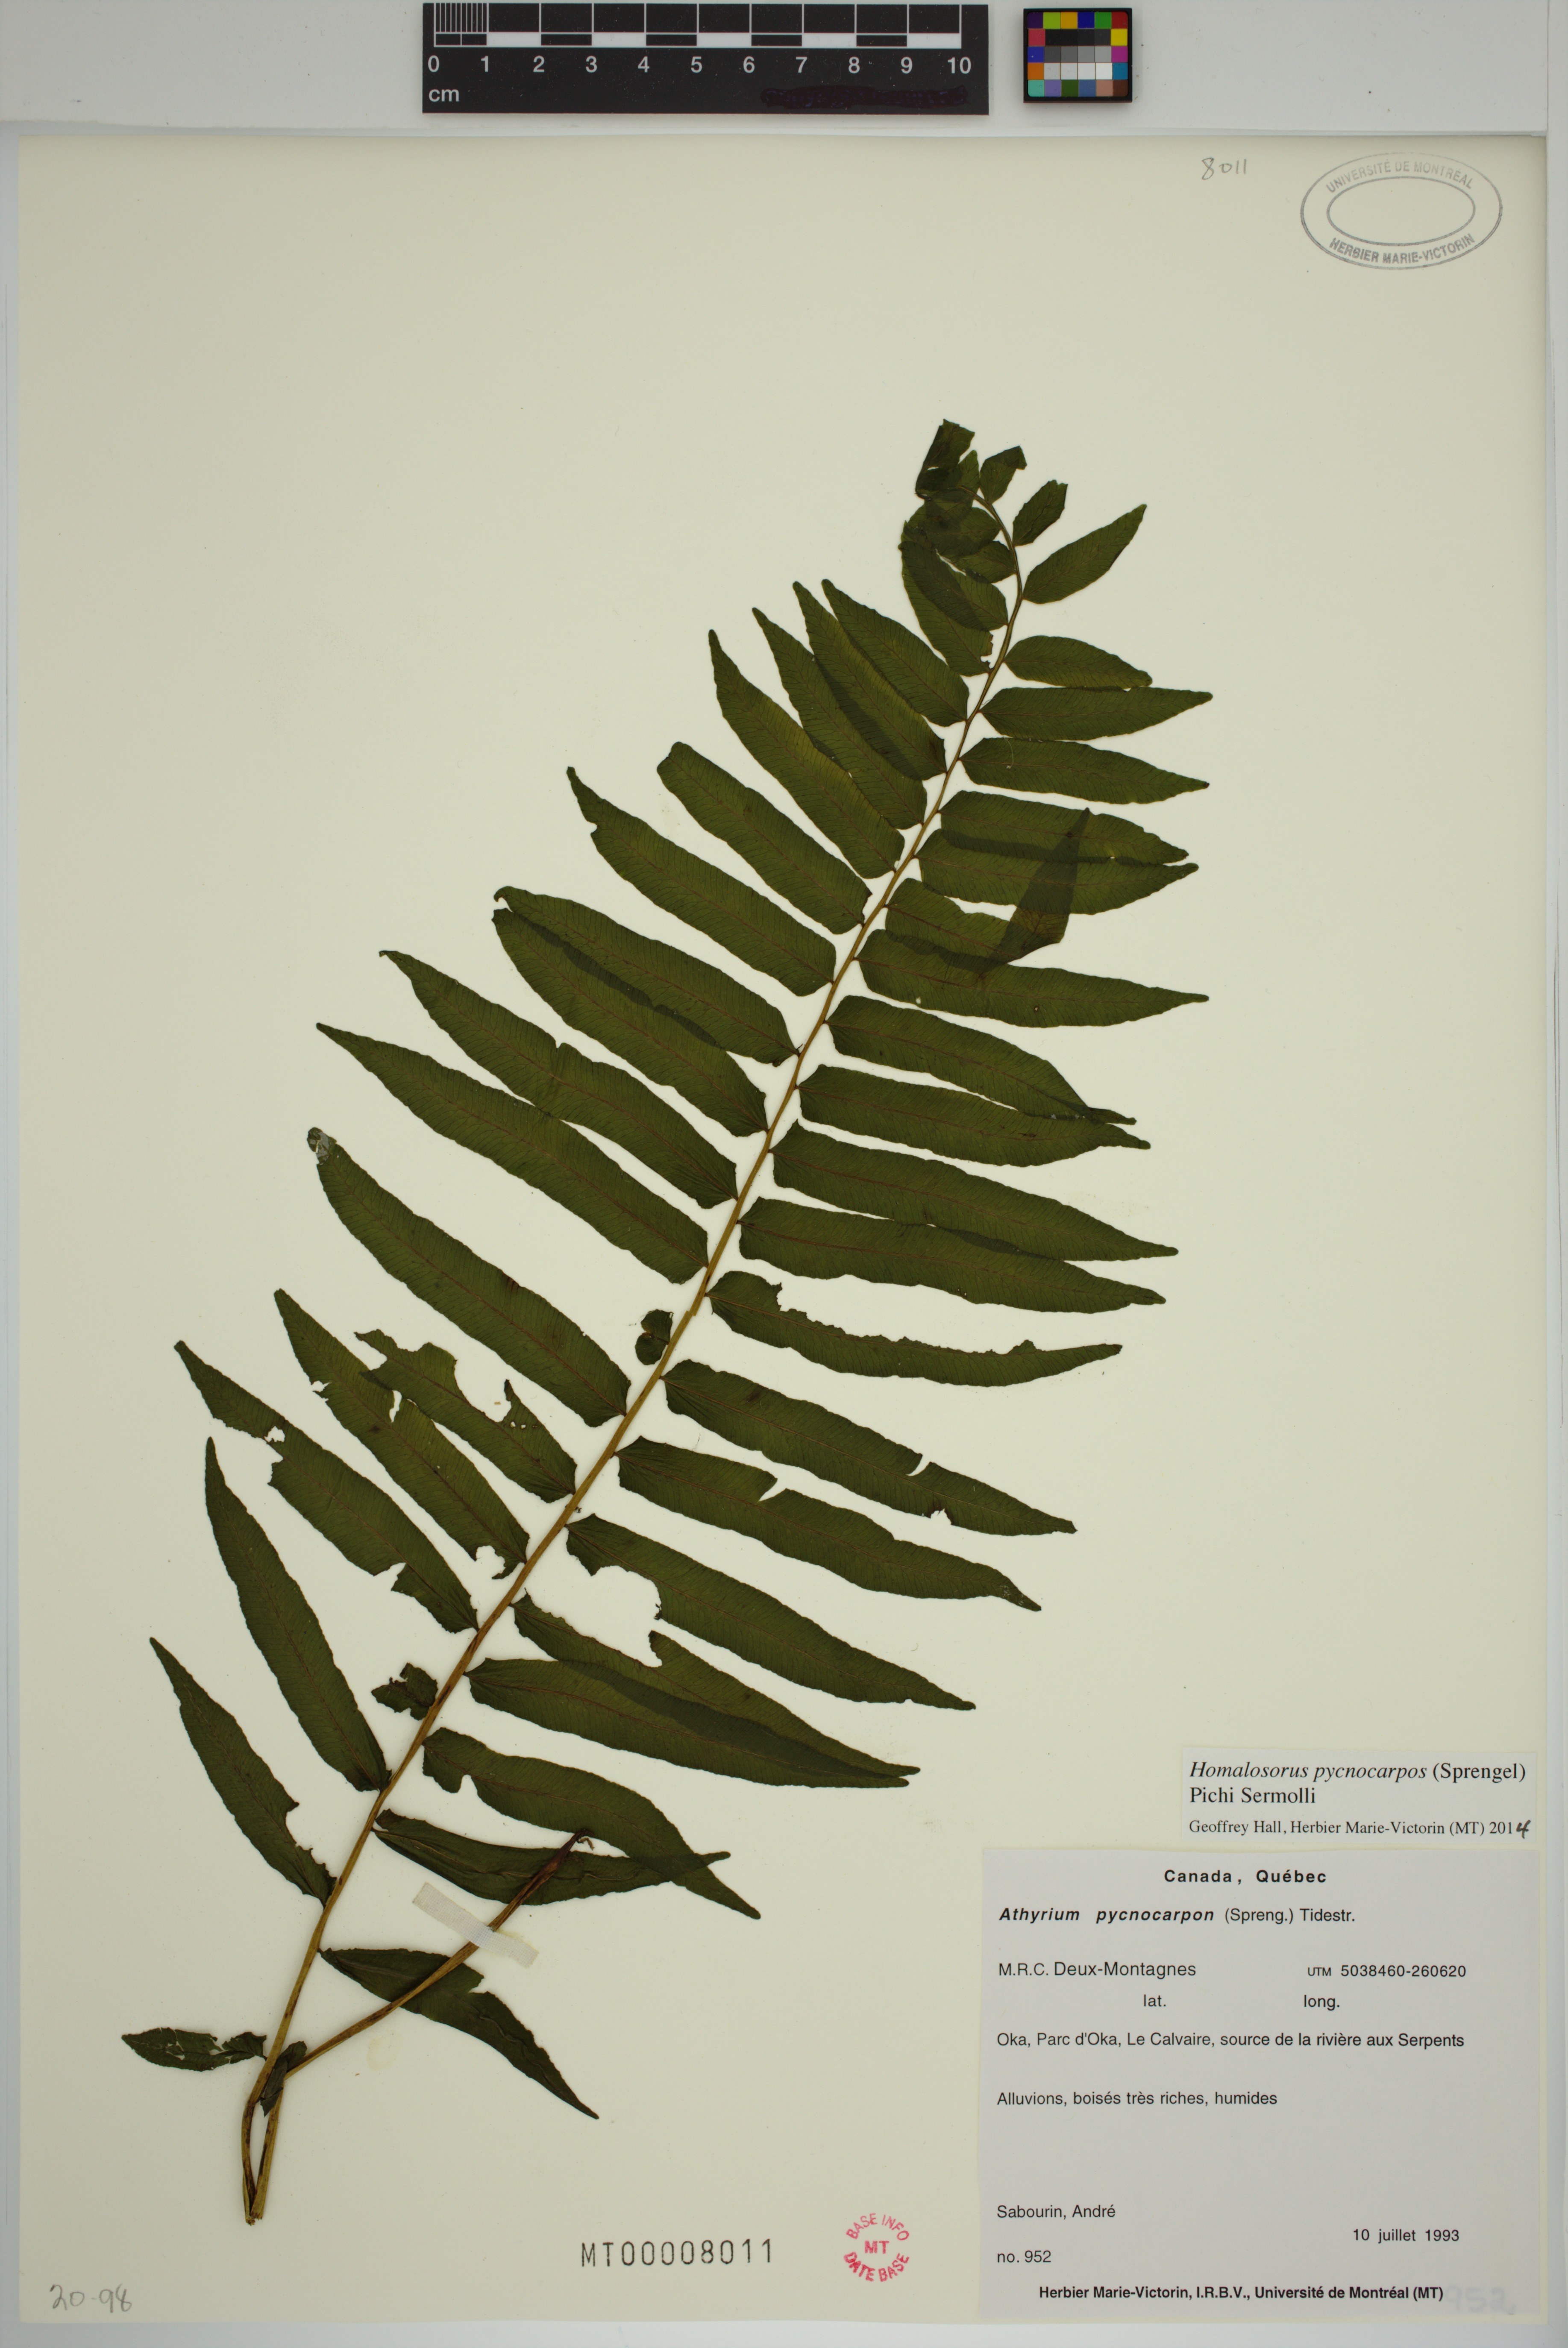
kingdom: Plantae
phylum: Tracheophyta
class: Polypodiopsida
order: Polypodiales
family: Diplaziopsidaceae
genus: Homalosorus
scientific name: Homalosorus pycnocarpos
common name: Glade fern
